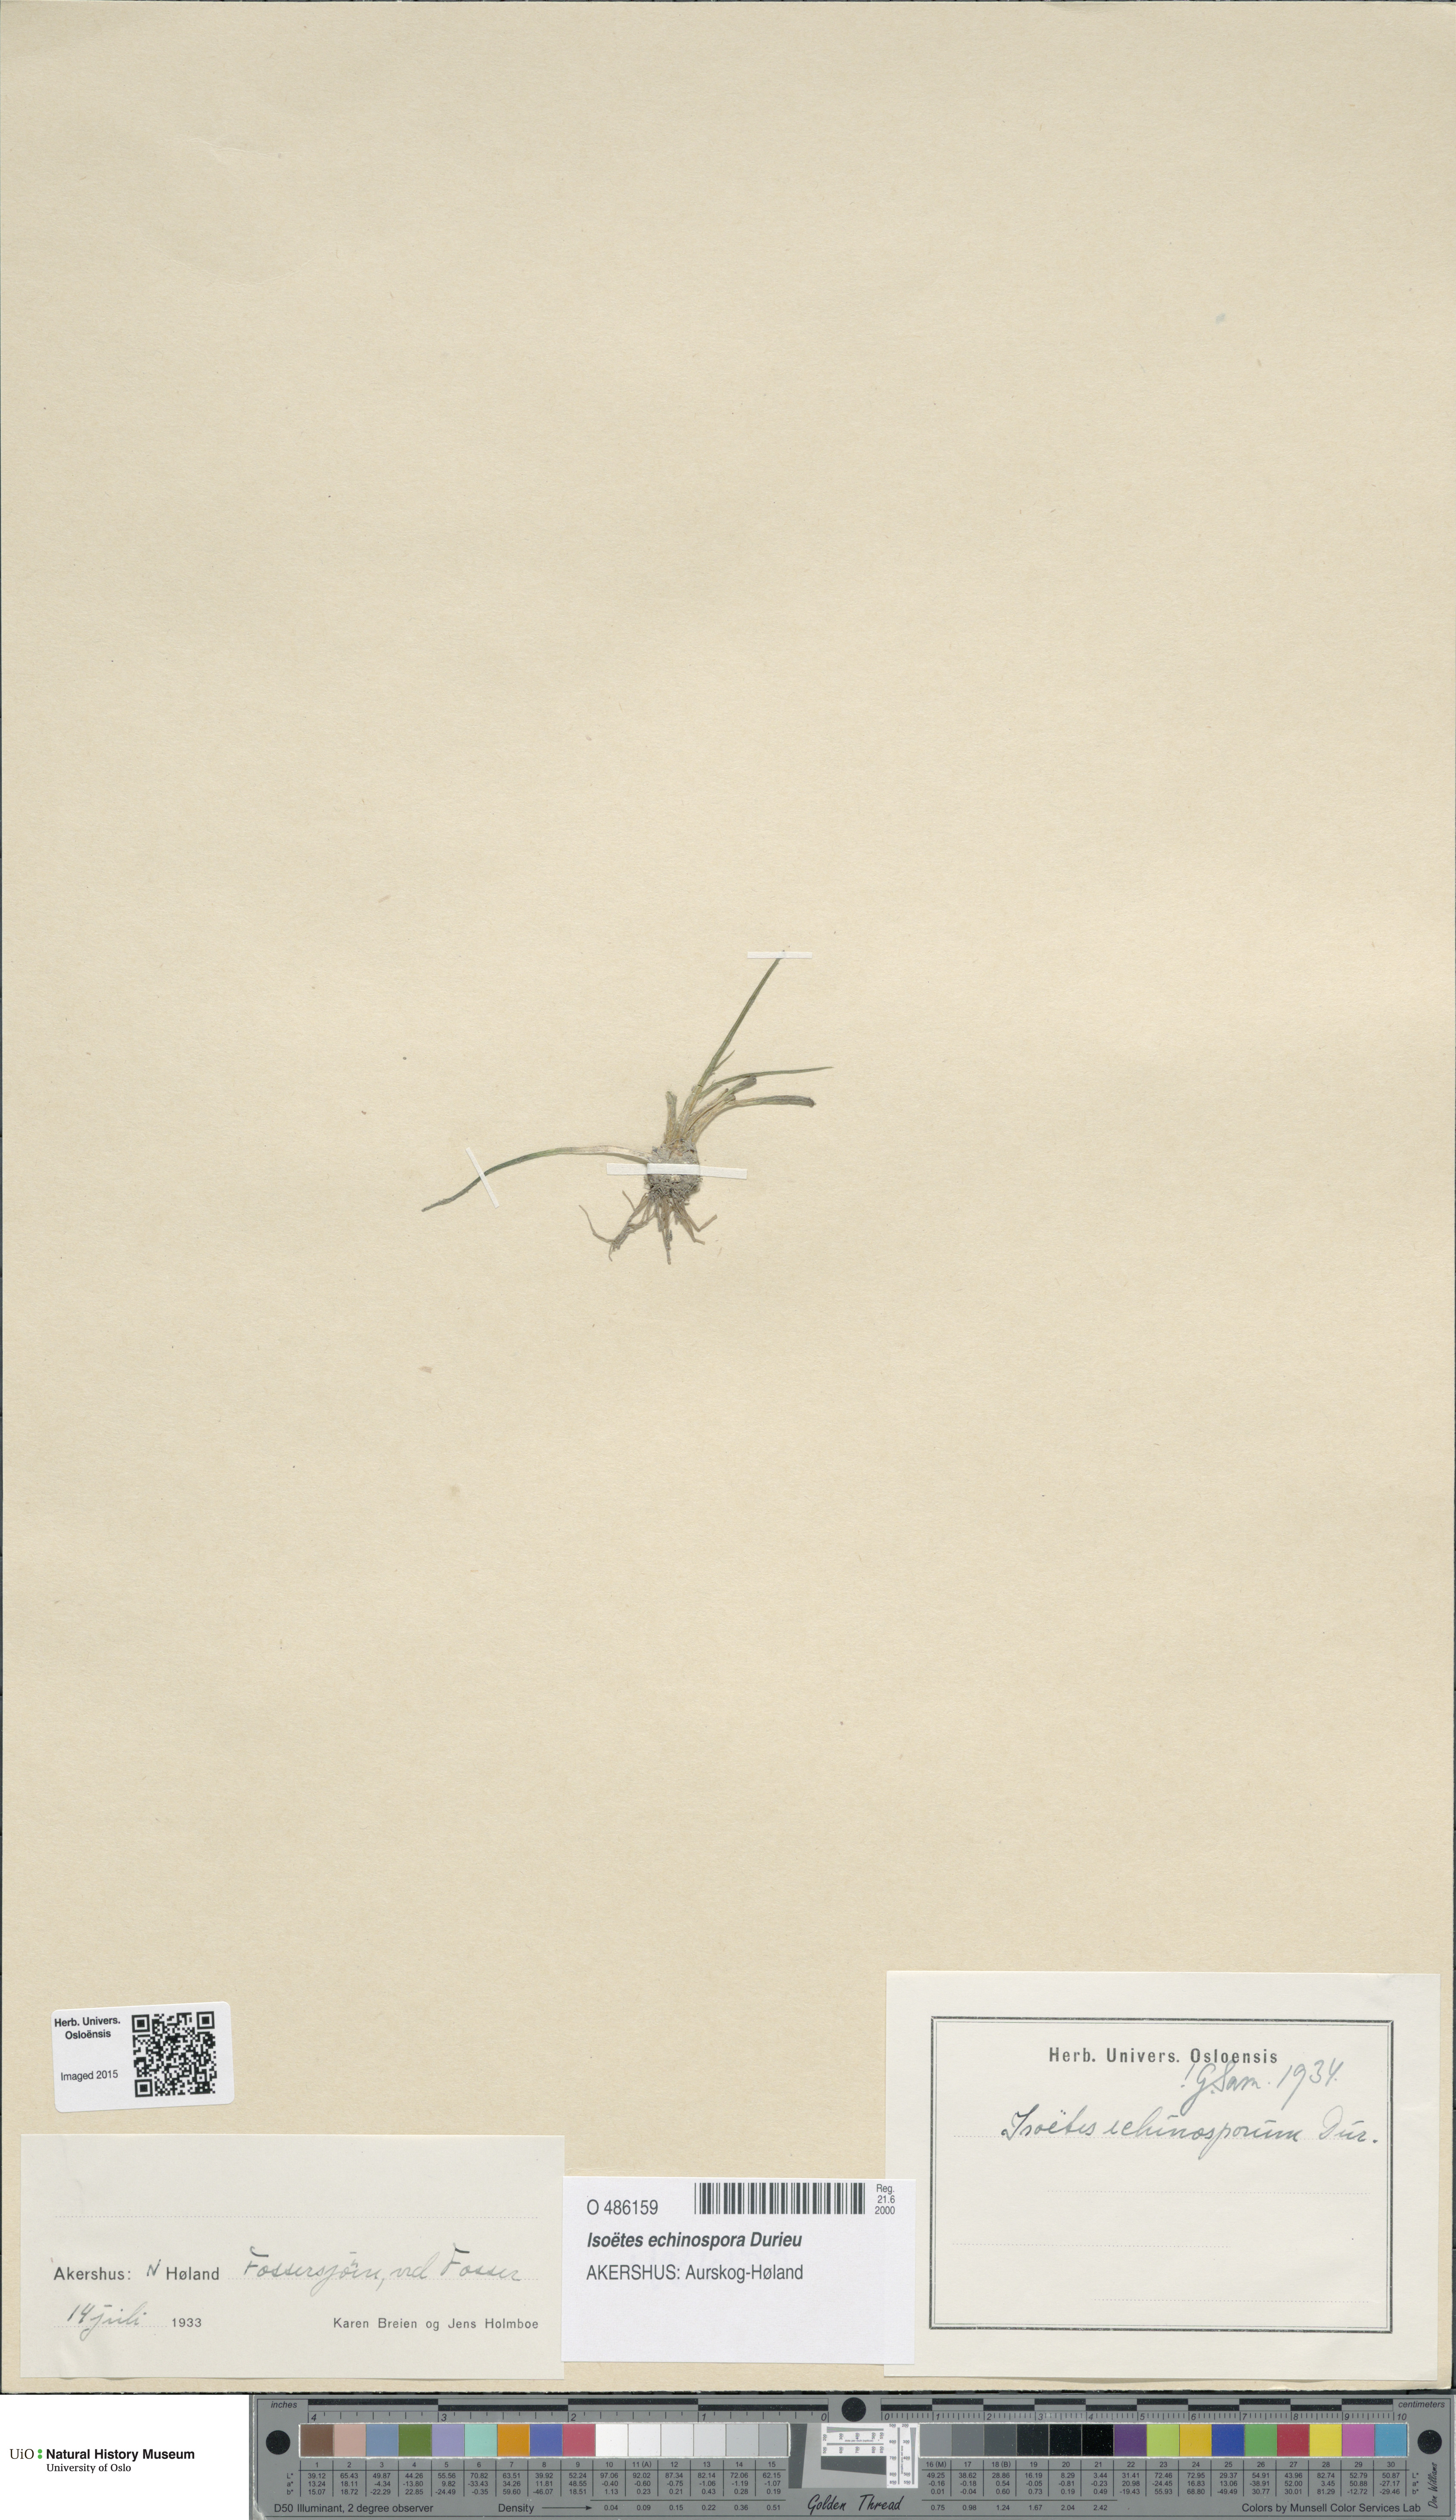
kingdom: Plantae
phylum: Tracheophyta
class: Lycopodiopsida
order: Isoetales
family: Isoetaceae
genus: Isoetes
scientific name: Isoetes echinospora
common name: Spring quillwort
